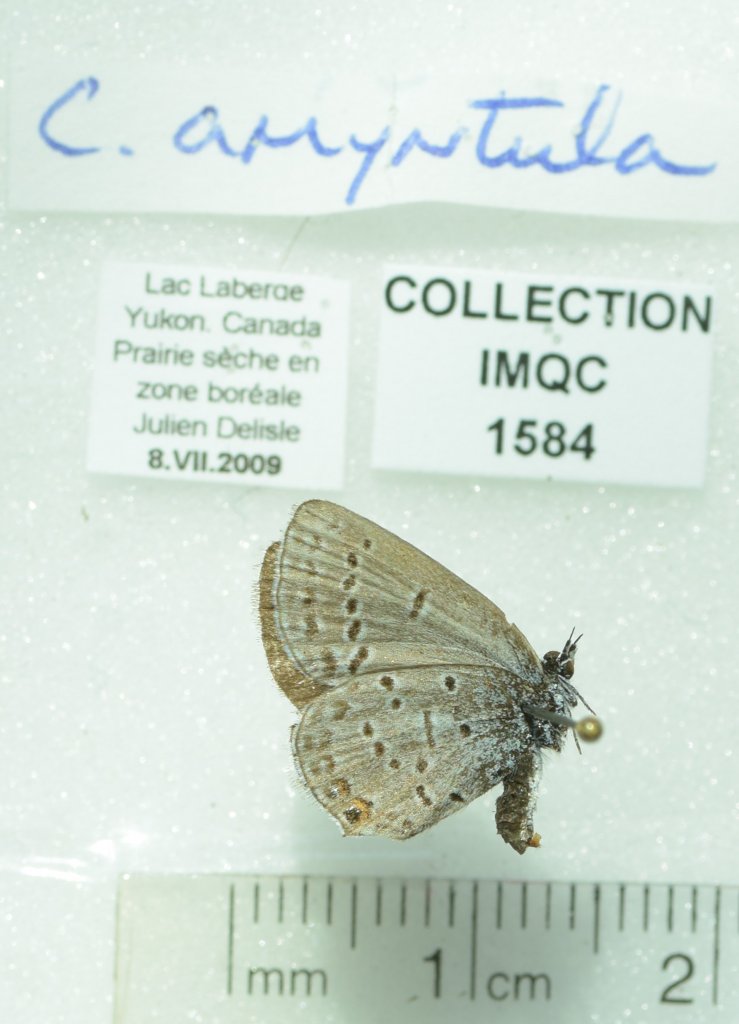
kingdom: Animalia
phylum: Arthropoda
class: Insecta
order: Lepidoptera
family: Lycaenidae
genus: Elkalyce
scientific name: Elkalyce amyntula
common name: Western Tailed-Blue
